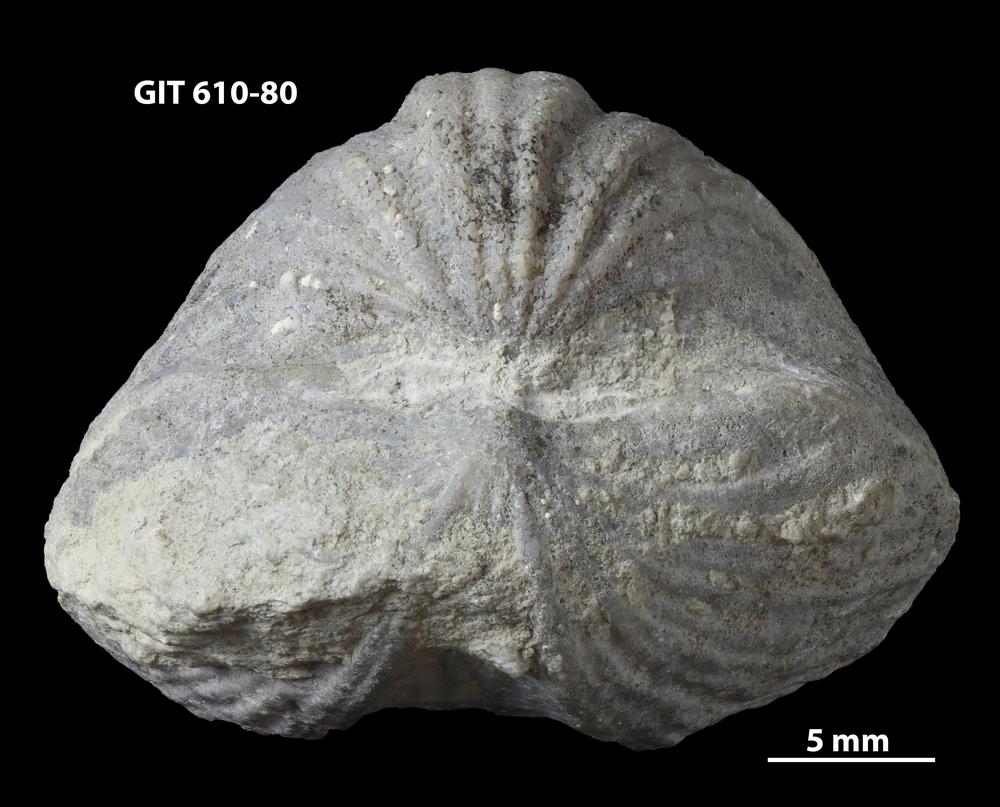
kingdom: Animalia
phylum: Brachiopoda
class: Rhynchonellata
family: Triplesiidae
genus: Ogmoplecia
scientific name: Ogmoplecia
